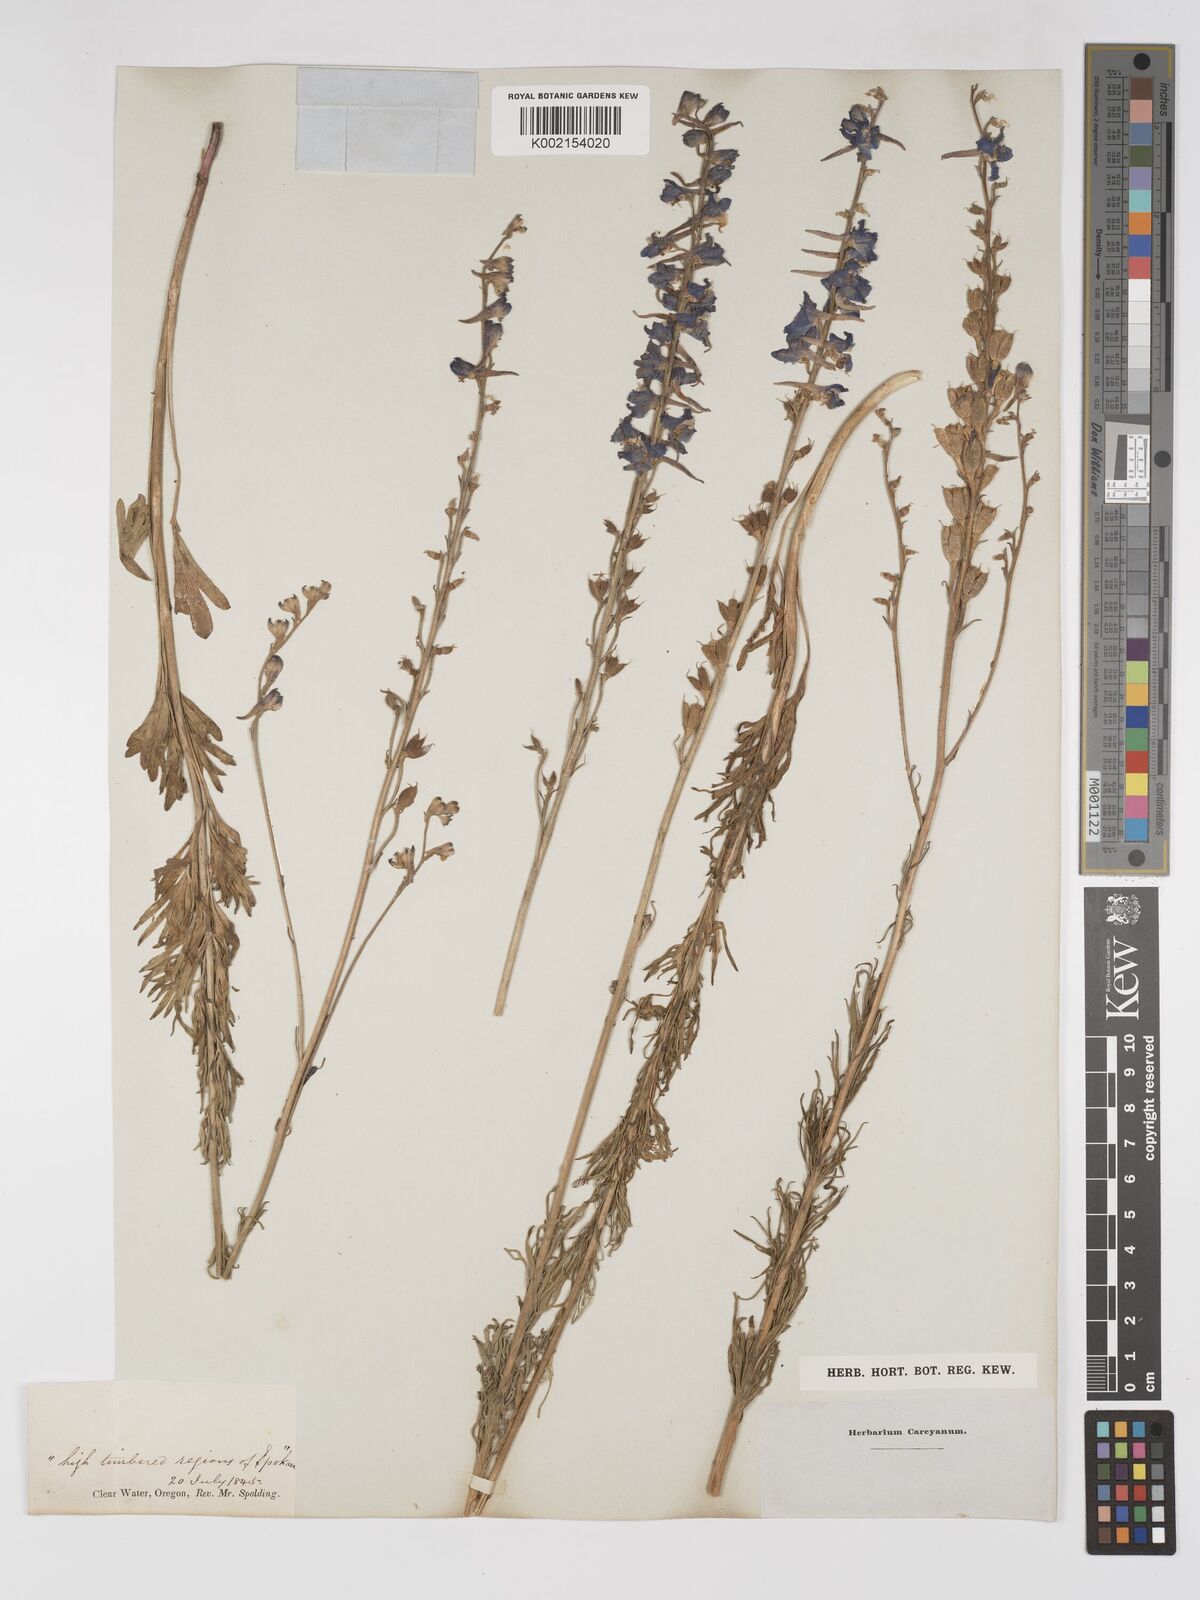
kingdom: Plantae
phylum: Tracheophyta
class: Magnoliopsida
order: Ranunculales
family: Ranunculaceae
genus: Delphinium
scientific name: Delphinium
